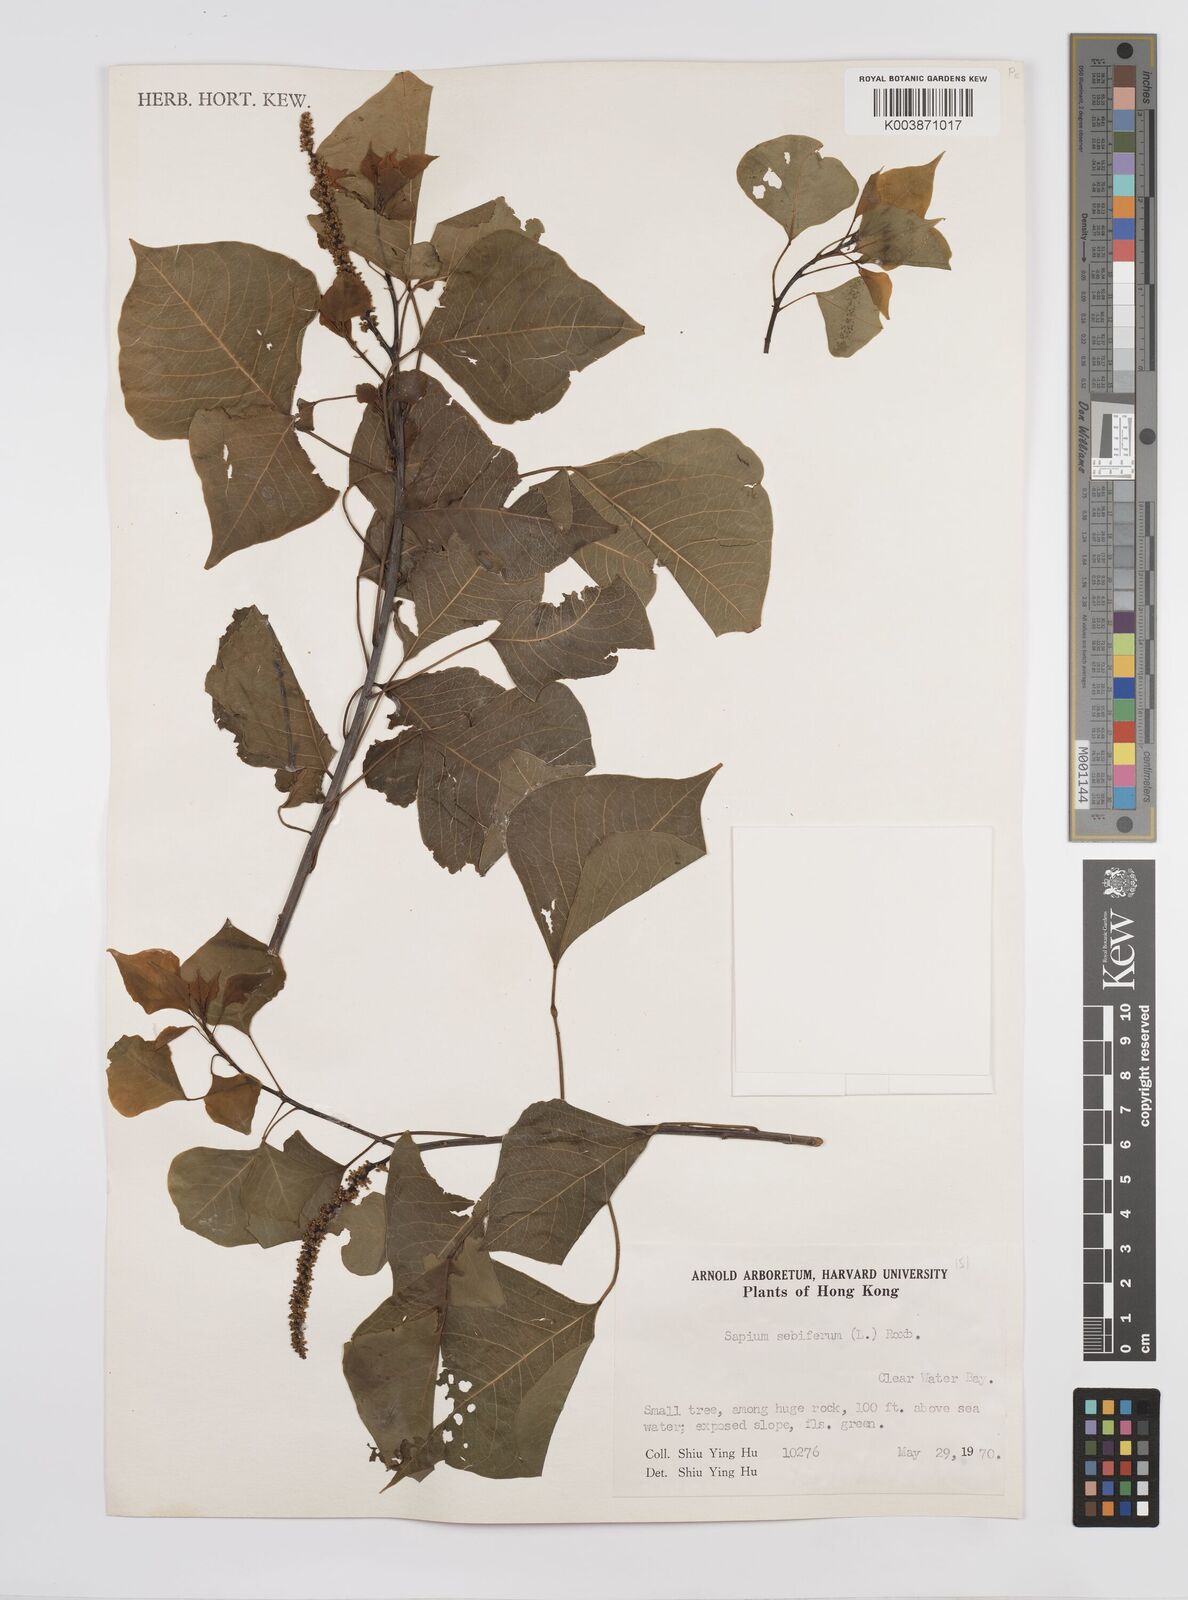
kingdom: Plantae
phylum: Tracheophyta
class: Magnoliopsida
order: Malpighiales
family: Euphorbiaceae
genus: Triadica
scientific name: Triadica sebifera
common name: Chinese tallow
